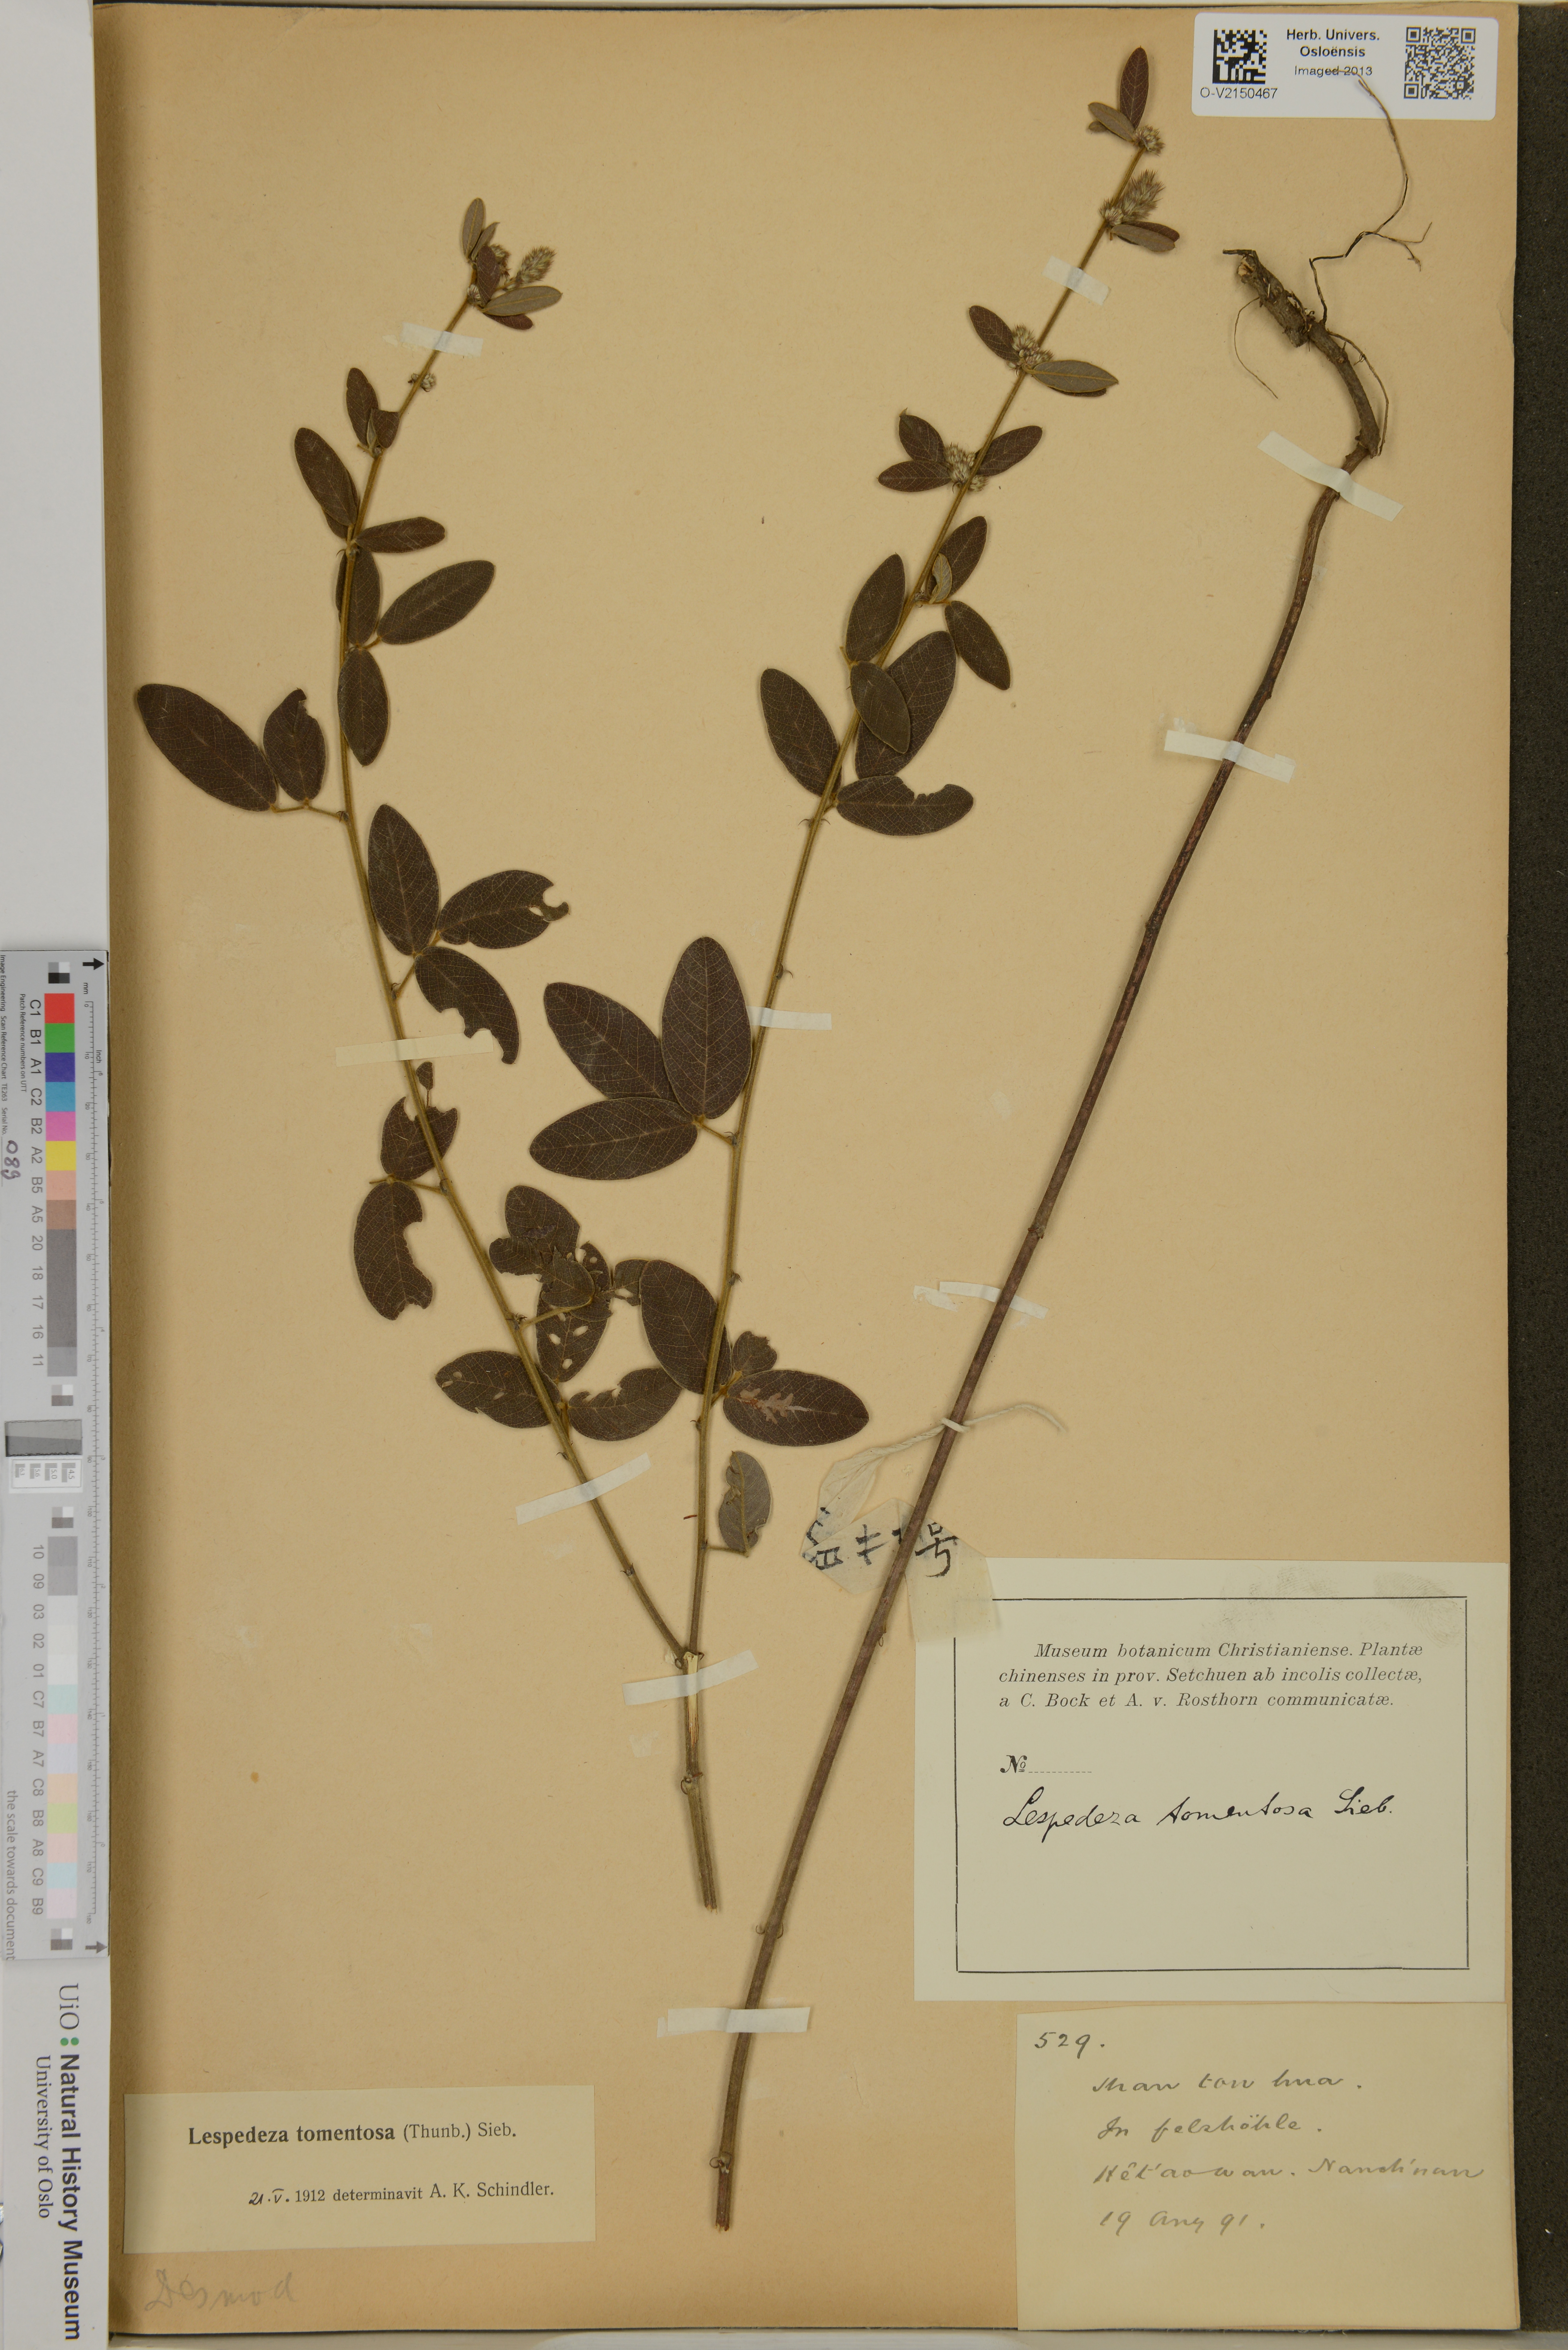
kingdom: Plantae
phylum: Tracheophyta
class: Magnoliopsida
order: Fabales
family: Fabaceae
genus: Lespedeza
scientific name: Lespedeza tomentosa
